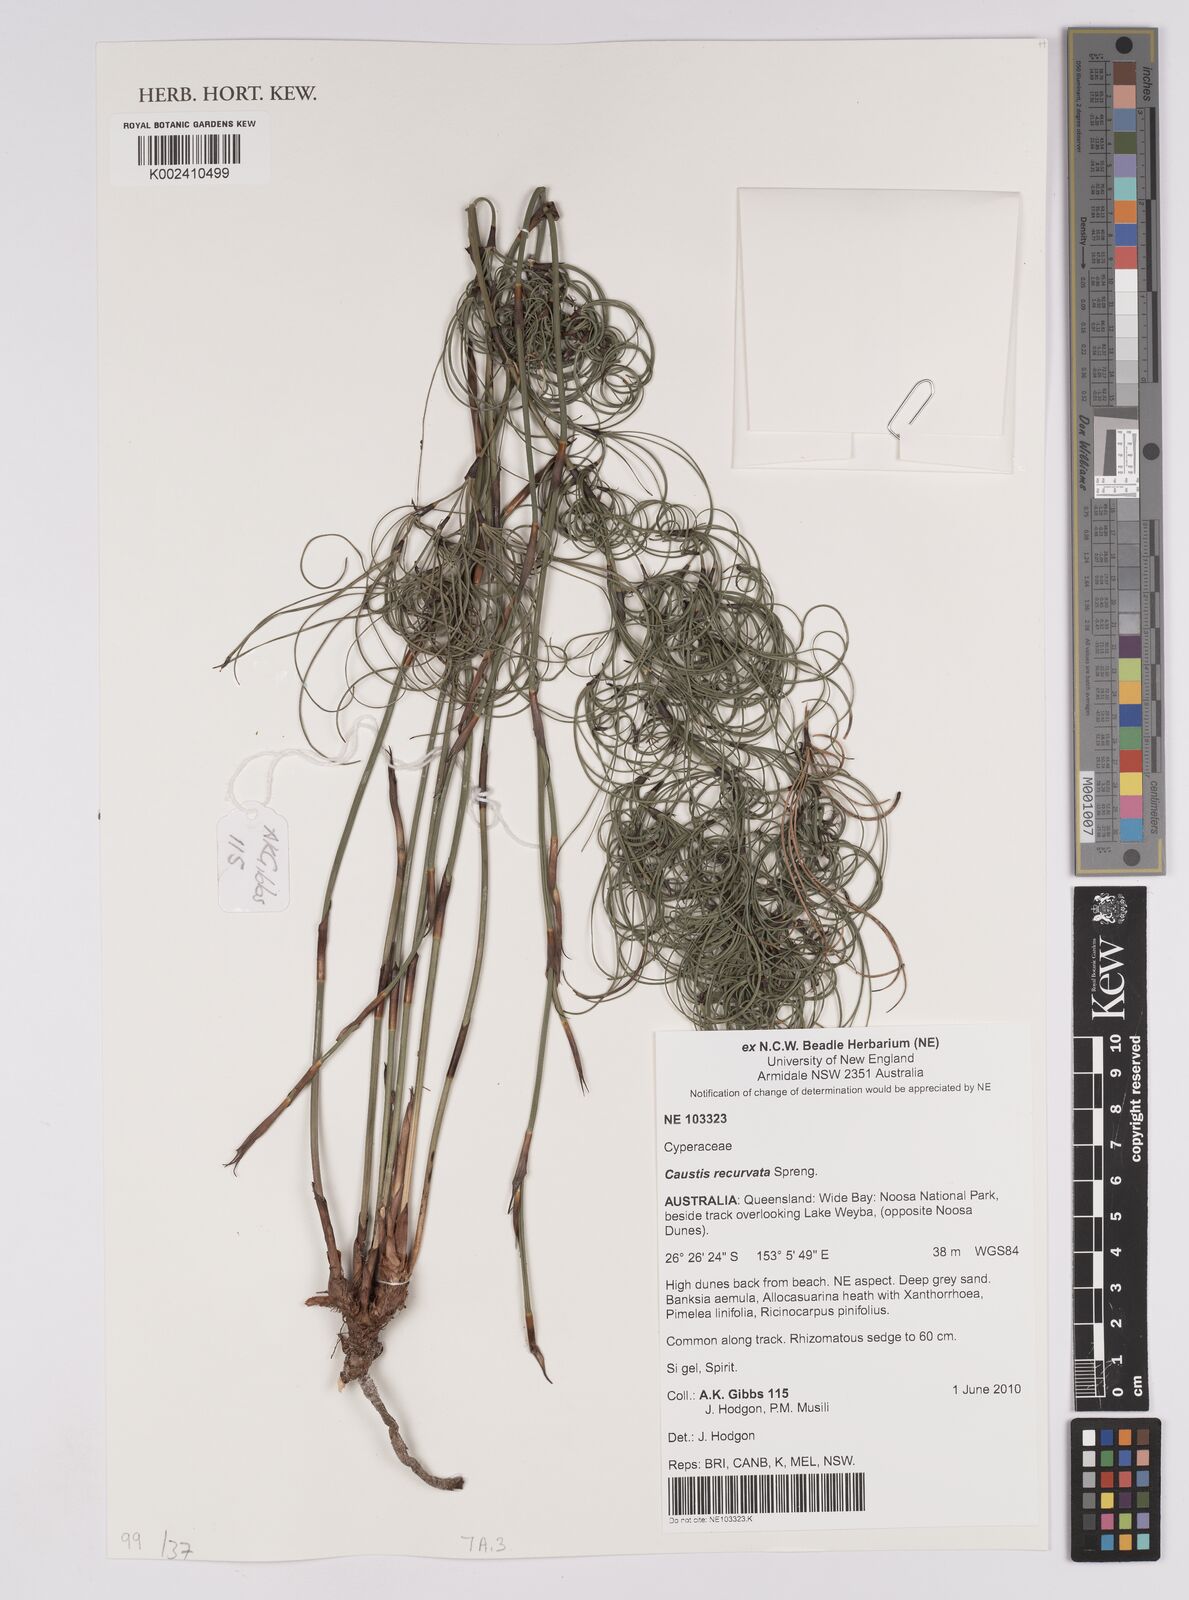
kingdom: Plantae
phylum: Tracheophyta
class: Liliopsida
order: Poales
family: Cyperaceae
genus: Caustis
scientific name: Caustis recurvata
